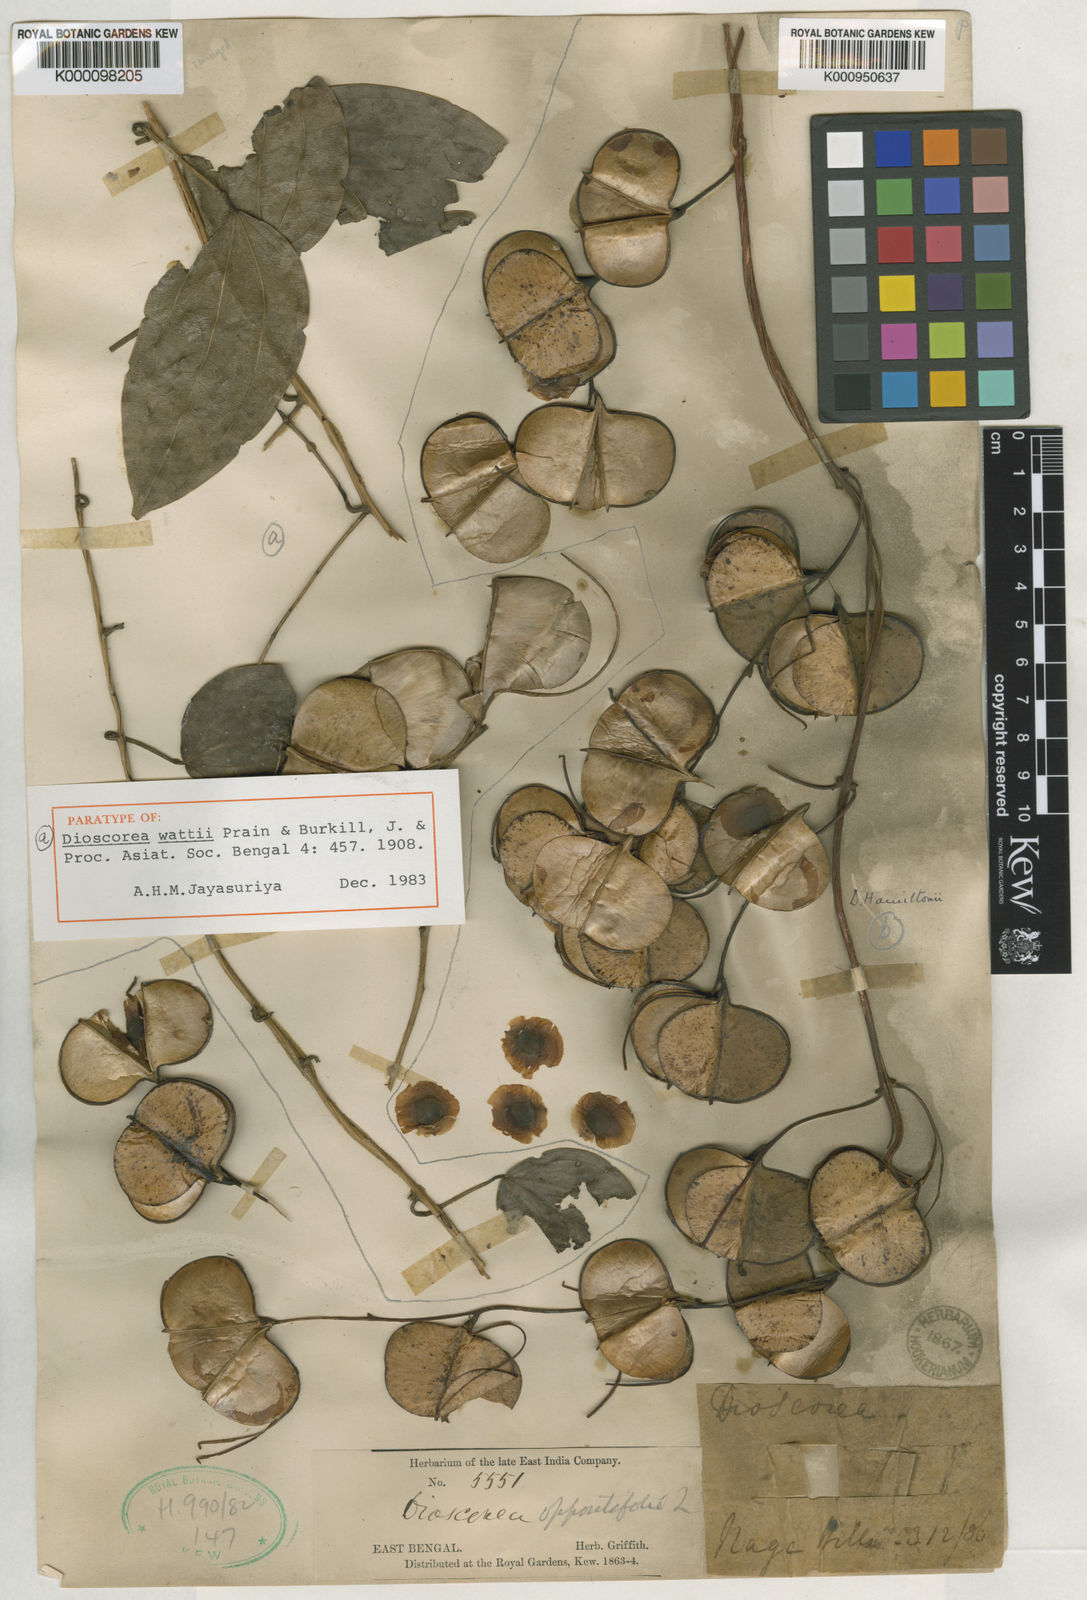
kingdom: Plantae
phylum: Tracheophyta
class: Liliopsida
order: Dioscoreales
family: Dioscoreaceae
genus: Dioscorea
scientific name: Dioscorea wattii
